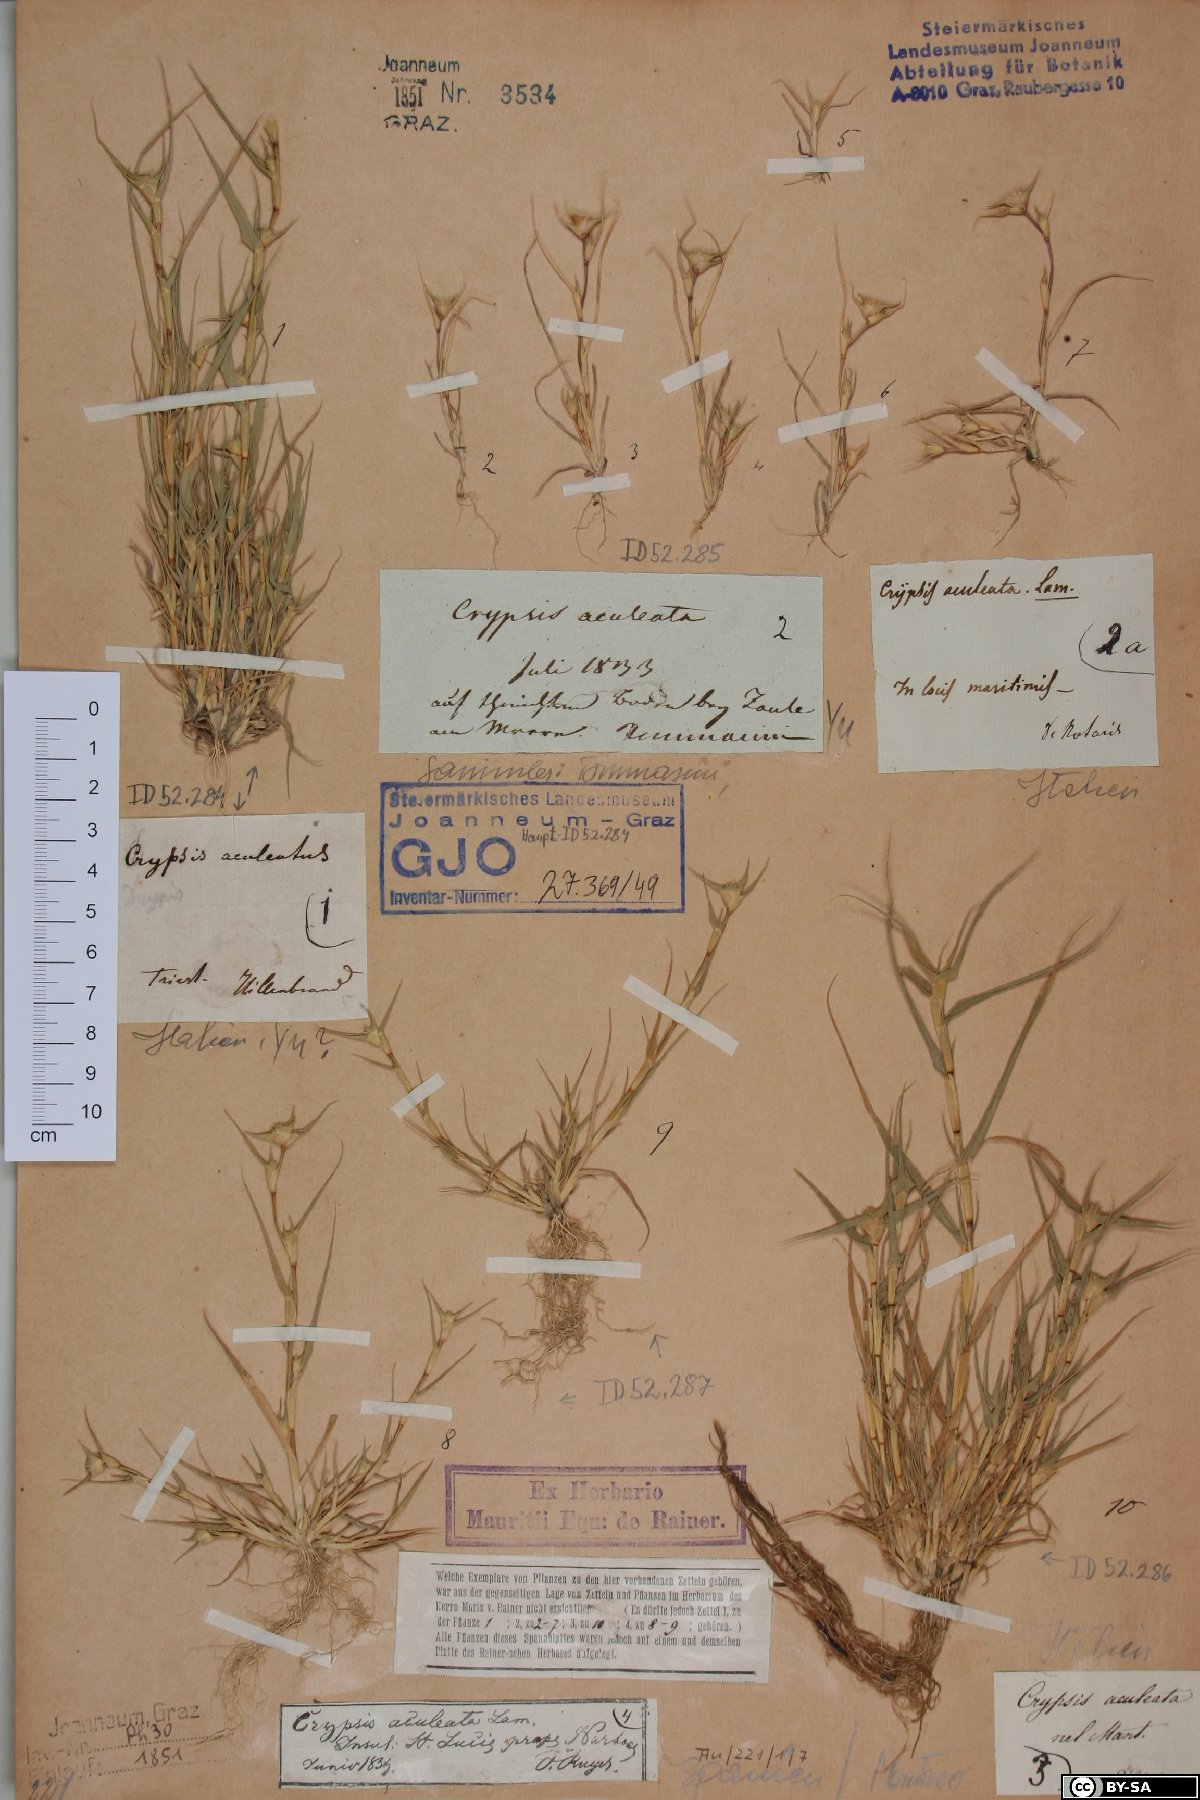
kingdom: Plantae
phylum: Tracheophyta
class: Liliopsida
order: Poales
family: Poaceae
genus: Sporobolus
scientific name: Sporobolus aculeatus
